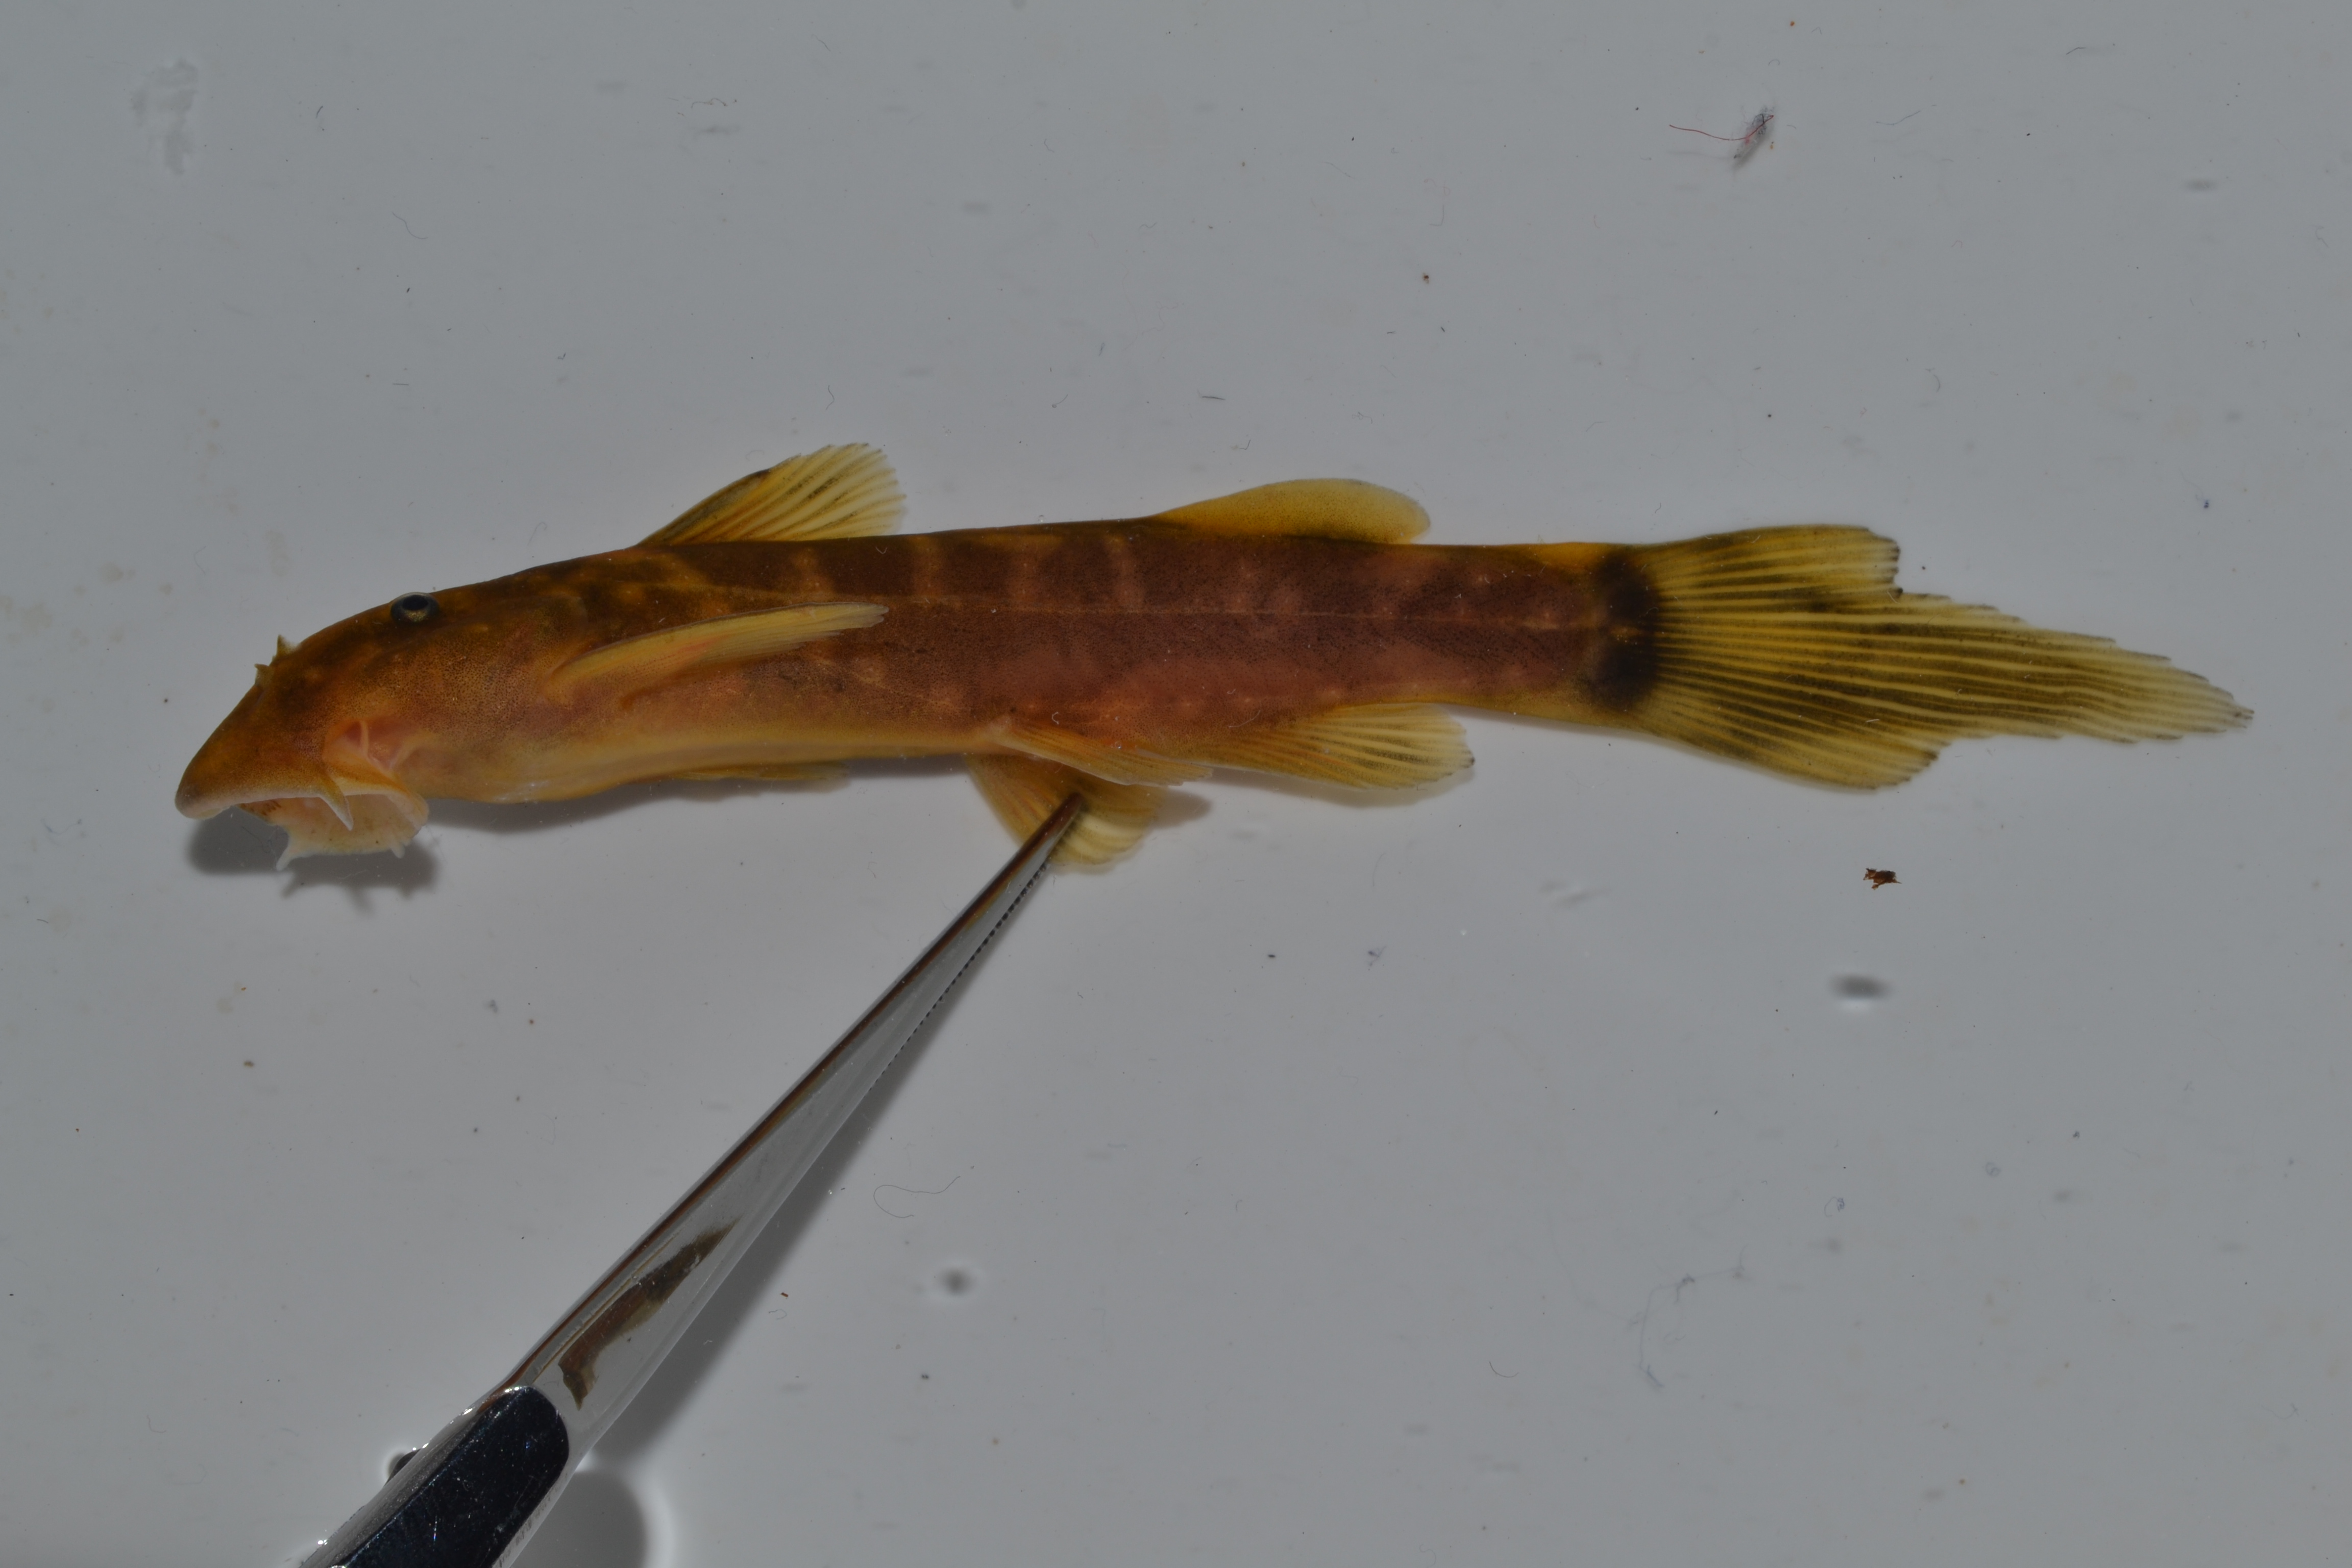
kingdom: Animalia
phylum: Chordata
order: Siluriformes
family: Mochokidae
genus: Chiloglanis
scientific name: Chiloglanis anoterus
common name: Pennant-tailed catlet
